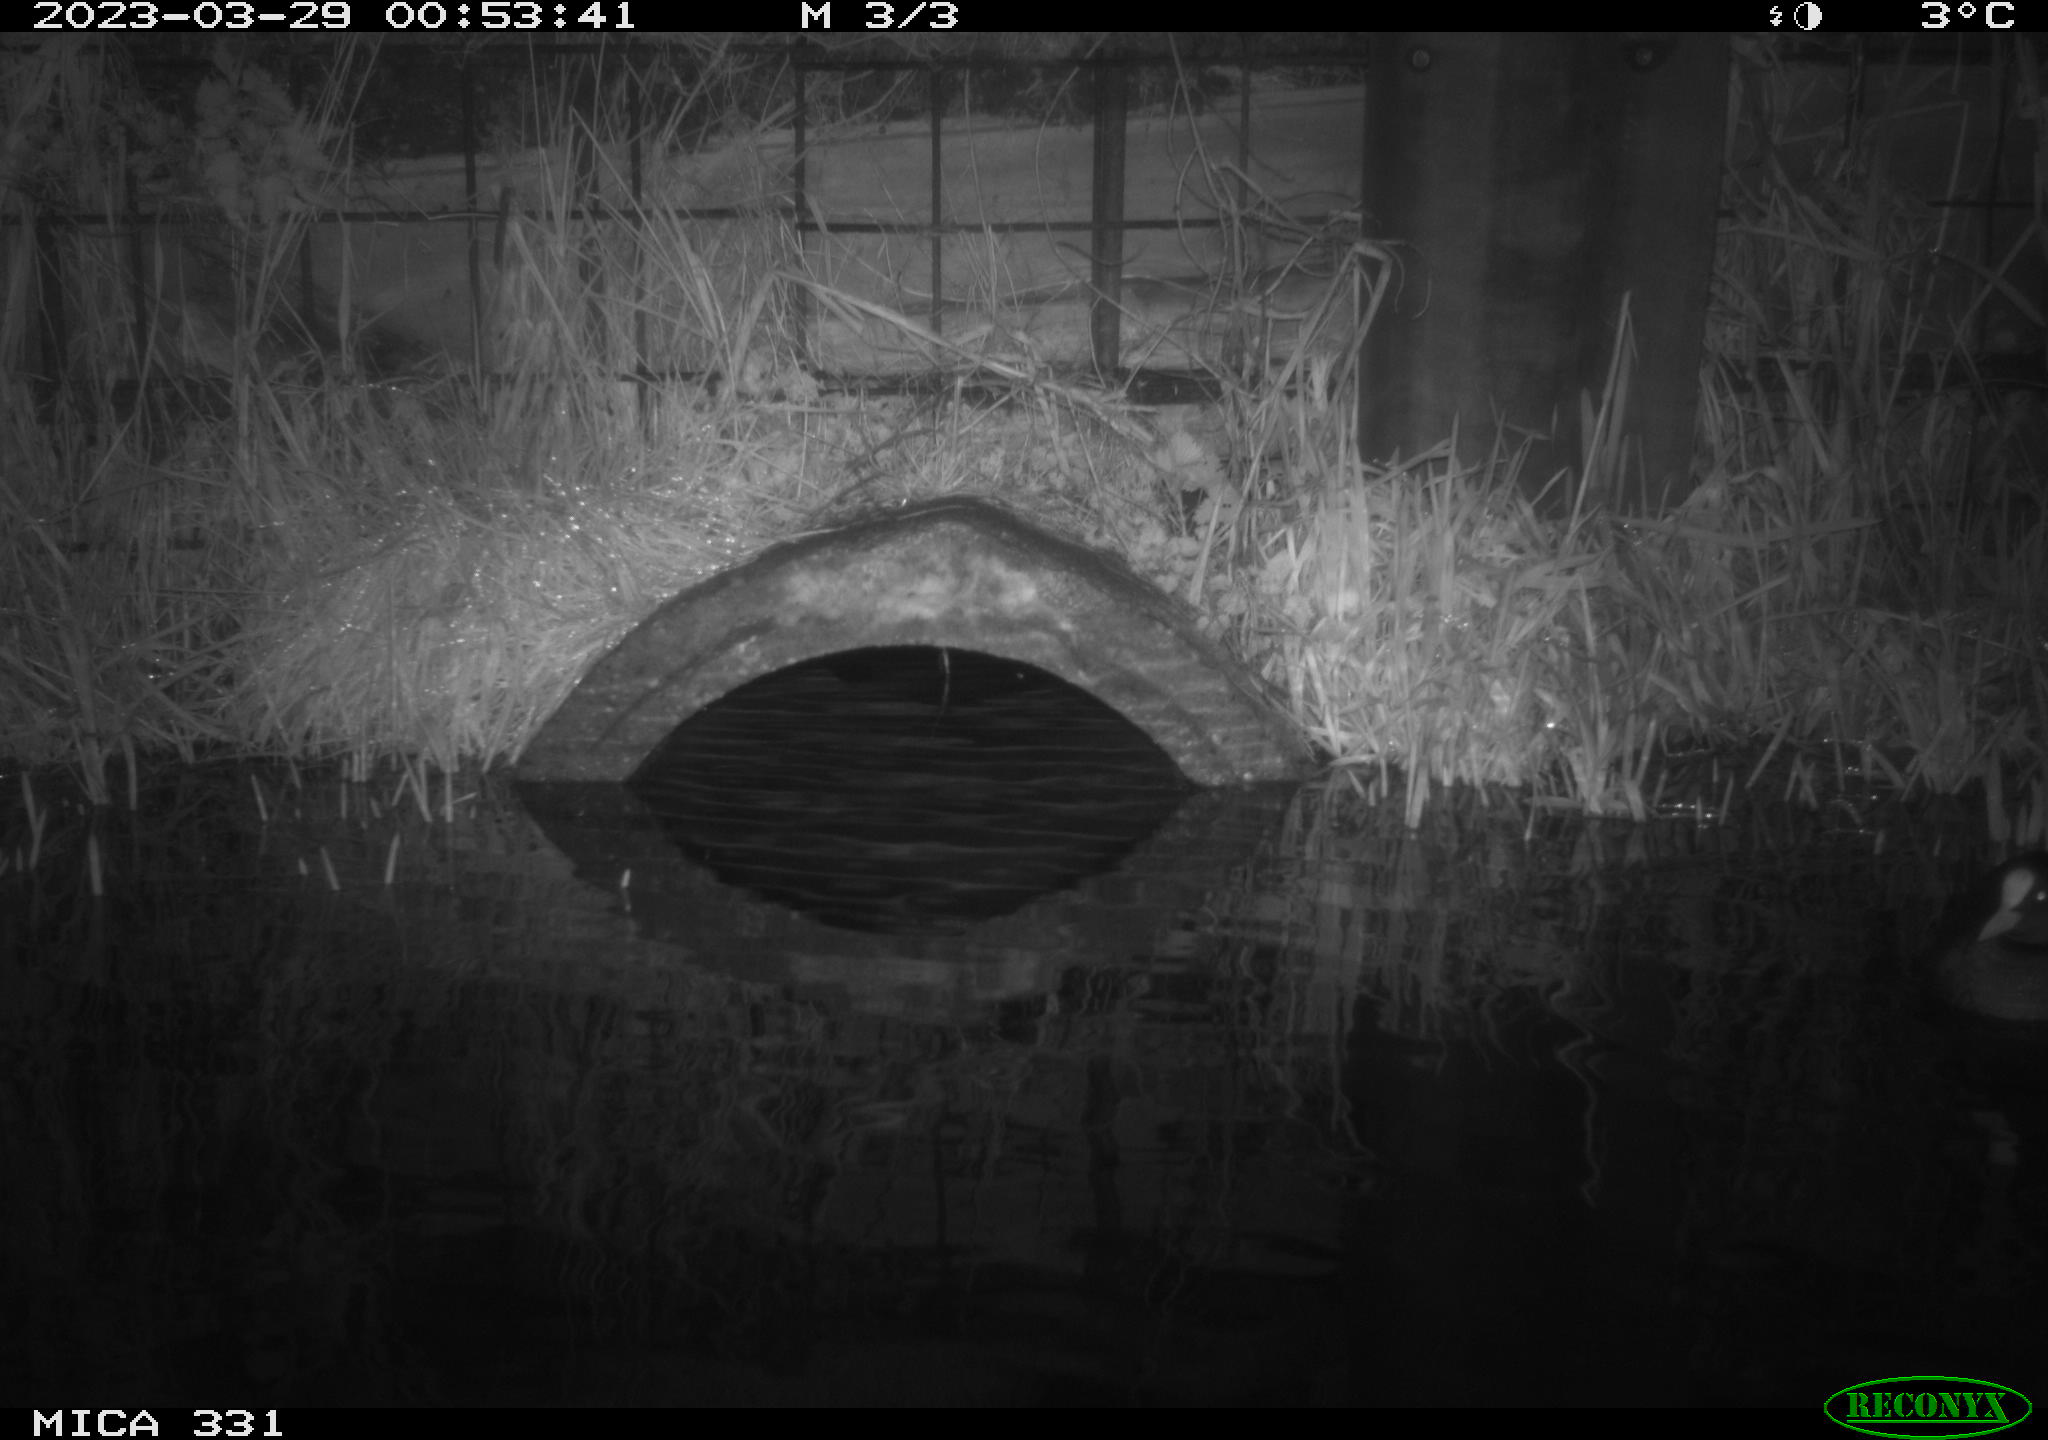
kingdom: Animalia
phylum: Chordata
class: Aves
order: Gruiformes
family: Rallidae
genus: Fulica
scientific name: Fulica atra
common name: Eurasian coot
